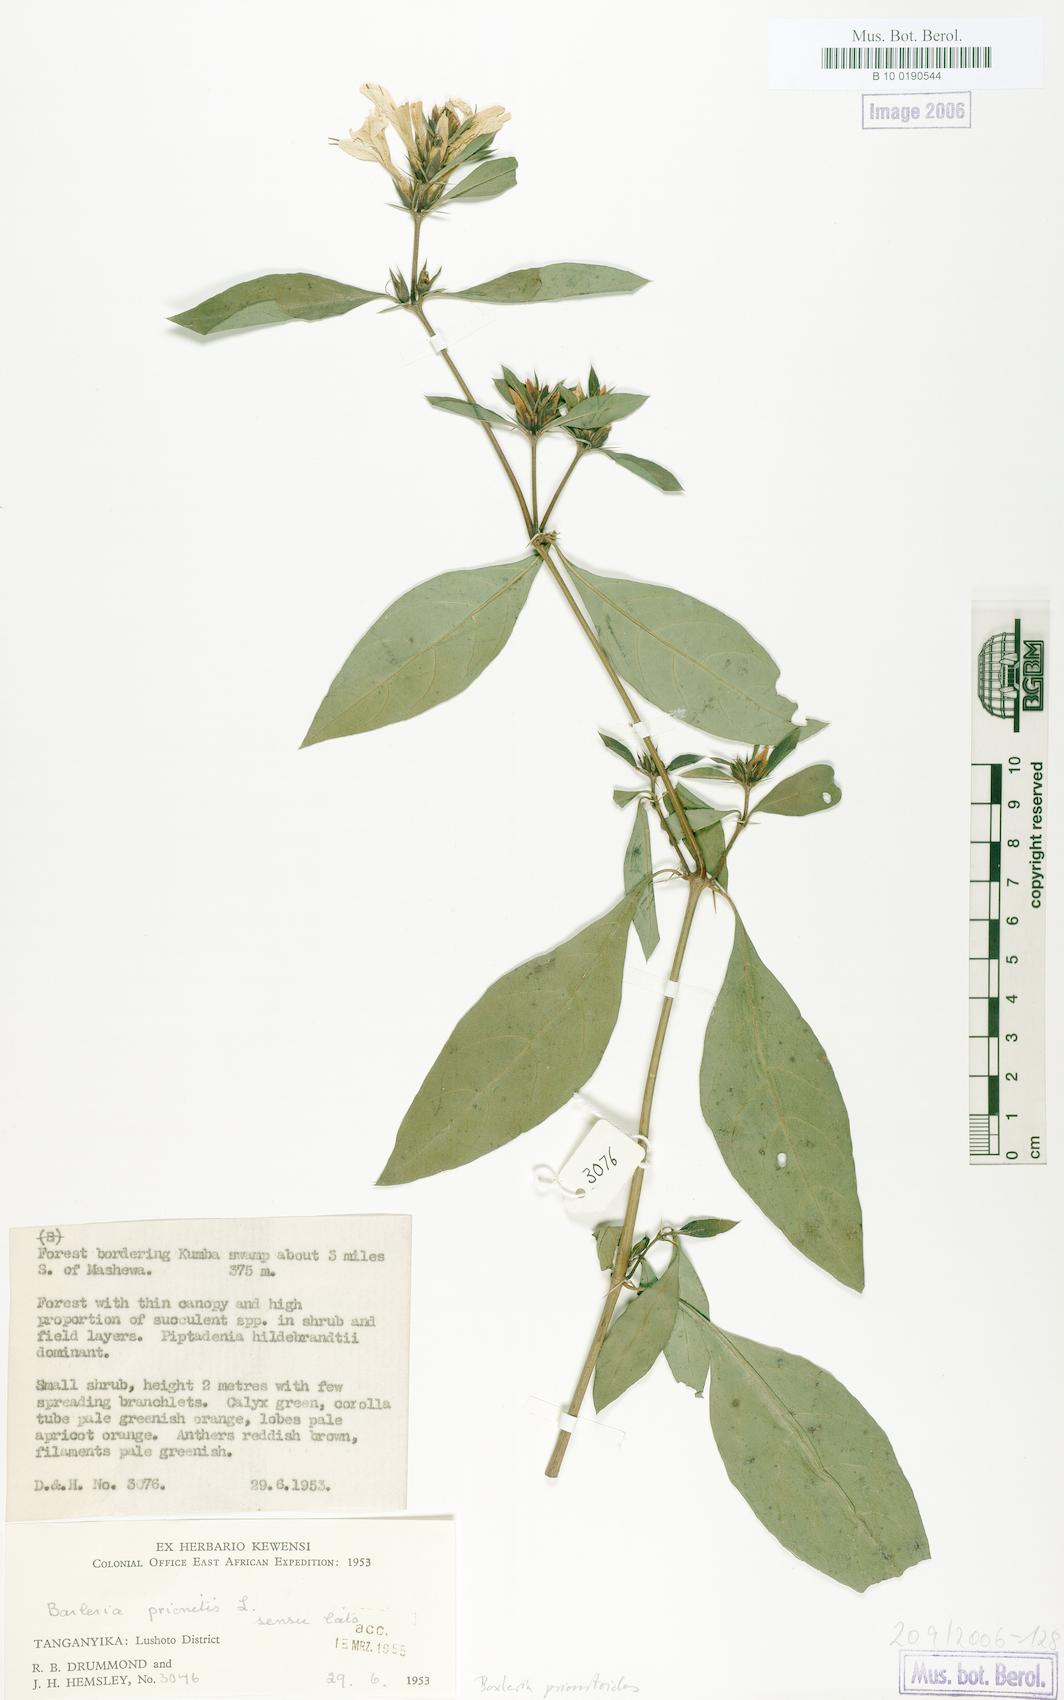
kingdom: Plantae
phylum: Tracheophyta
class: Magnoliopsida
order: Lamiales
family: Acanthaceae
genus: Barleria
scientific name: Barleria prionitis
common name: Barleria
